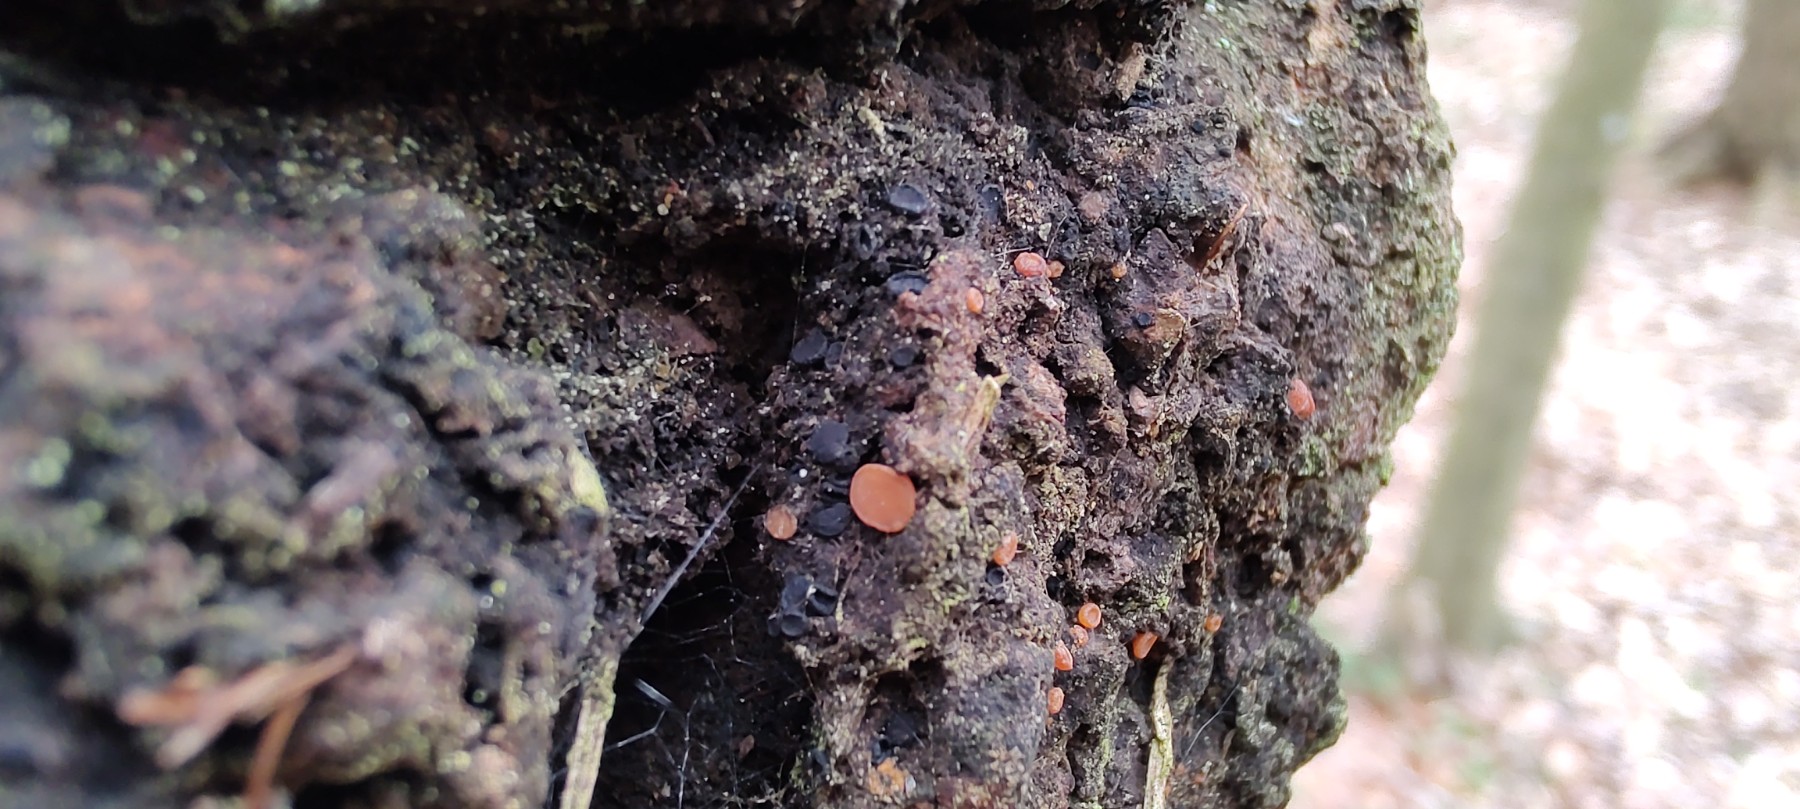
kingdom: Fungi
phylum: Ascomycota
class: Sareomycetes
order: Sareales
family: Sareaceae
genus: Sarea
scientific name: Sarea difformis
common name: mørk harpiksskive
